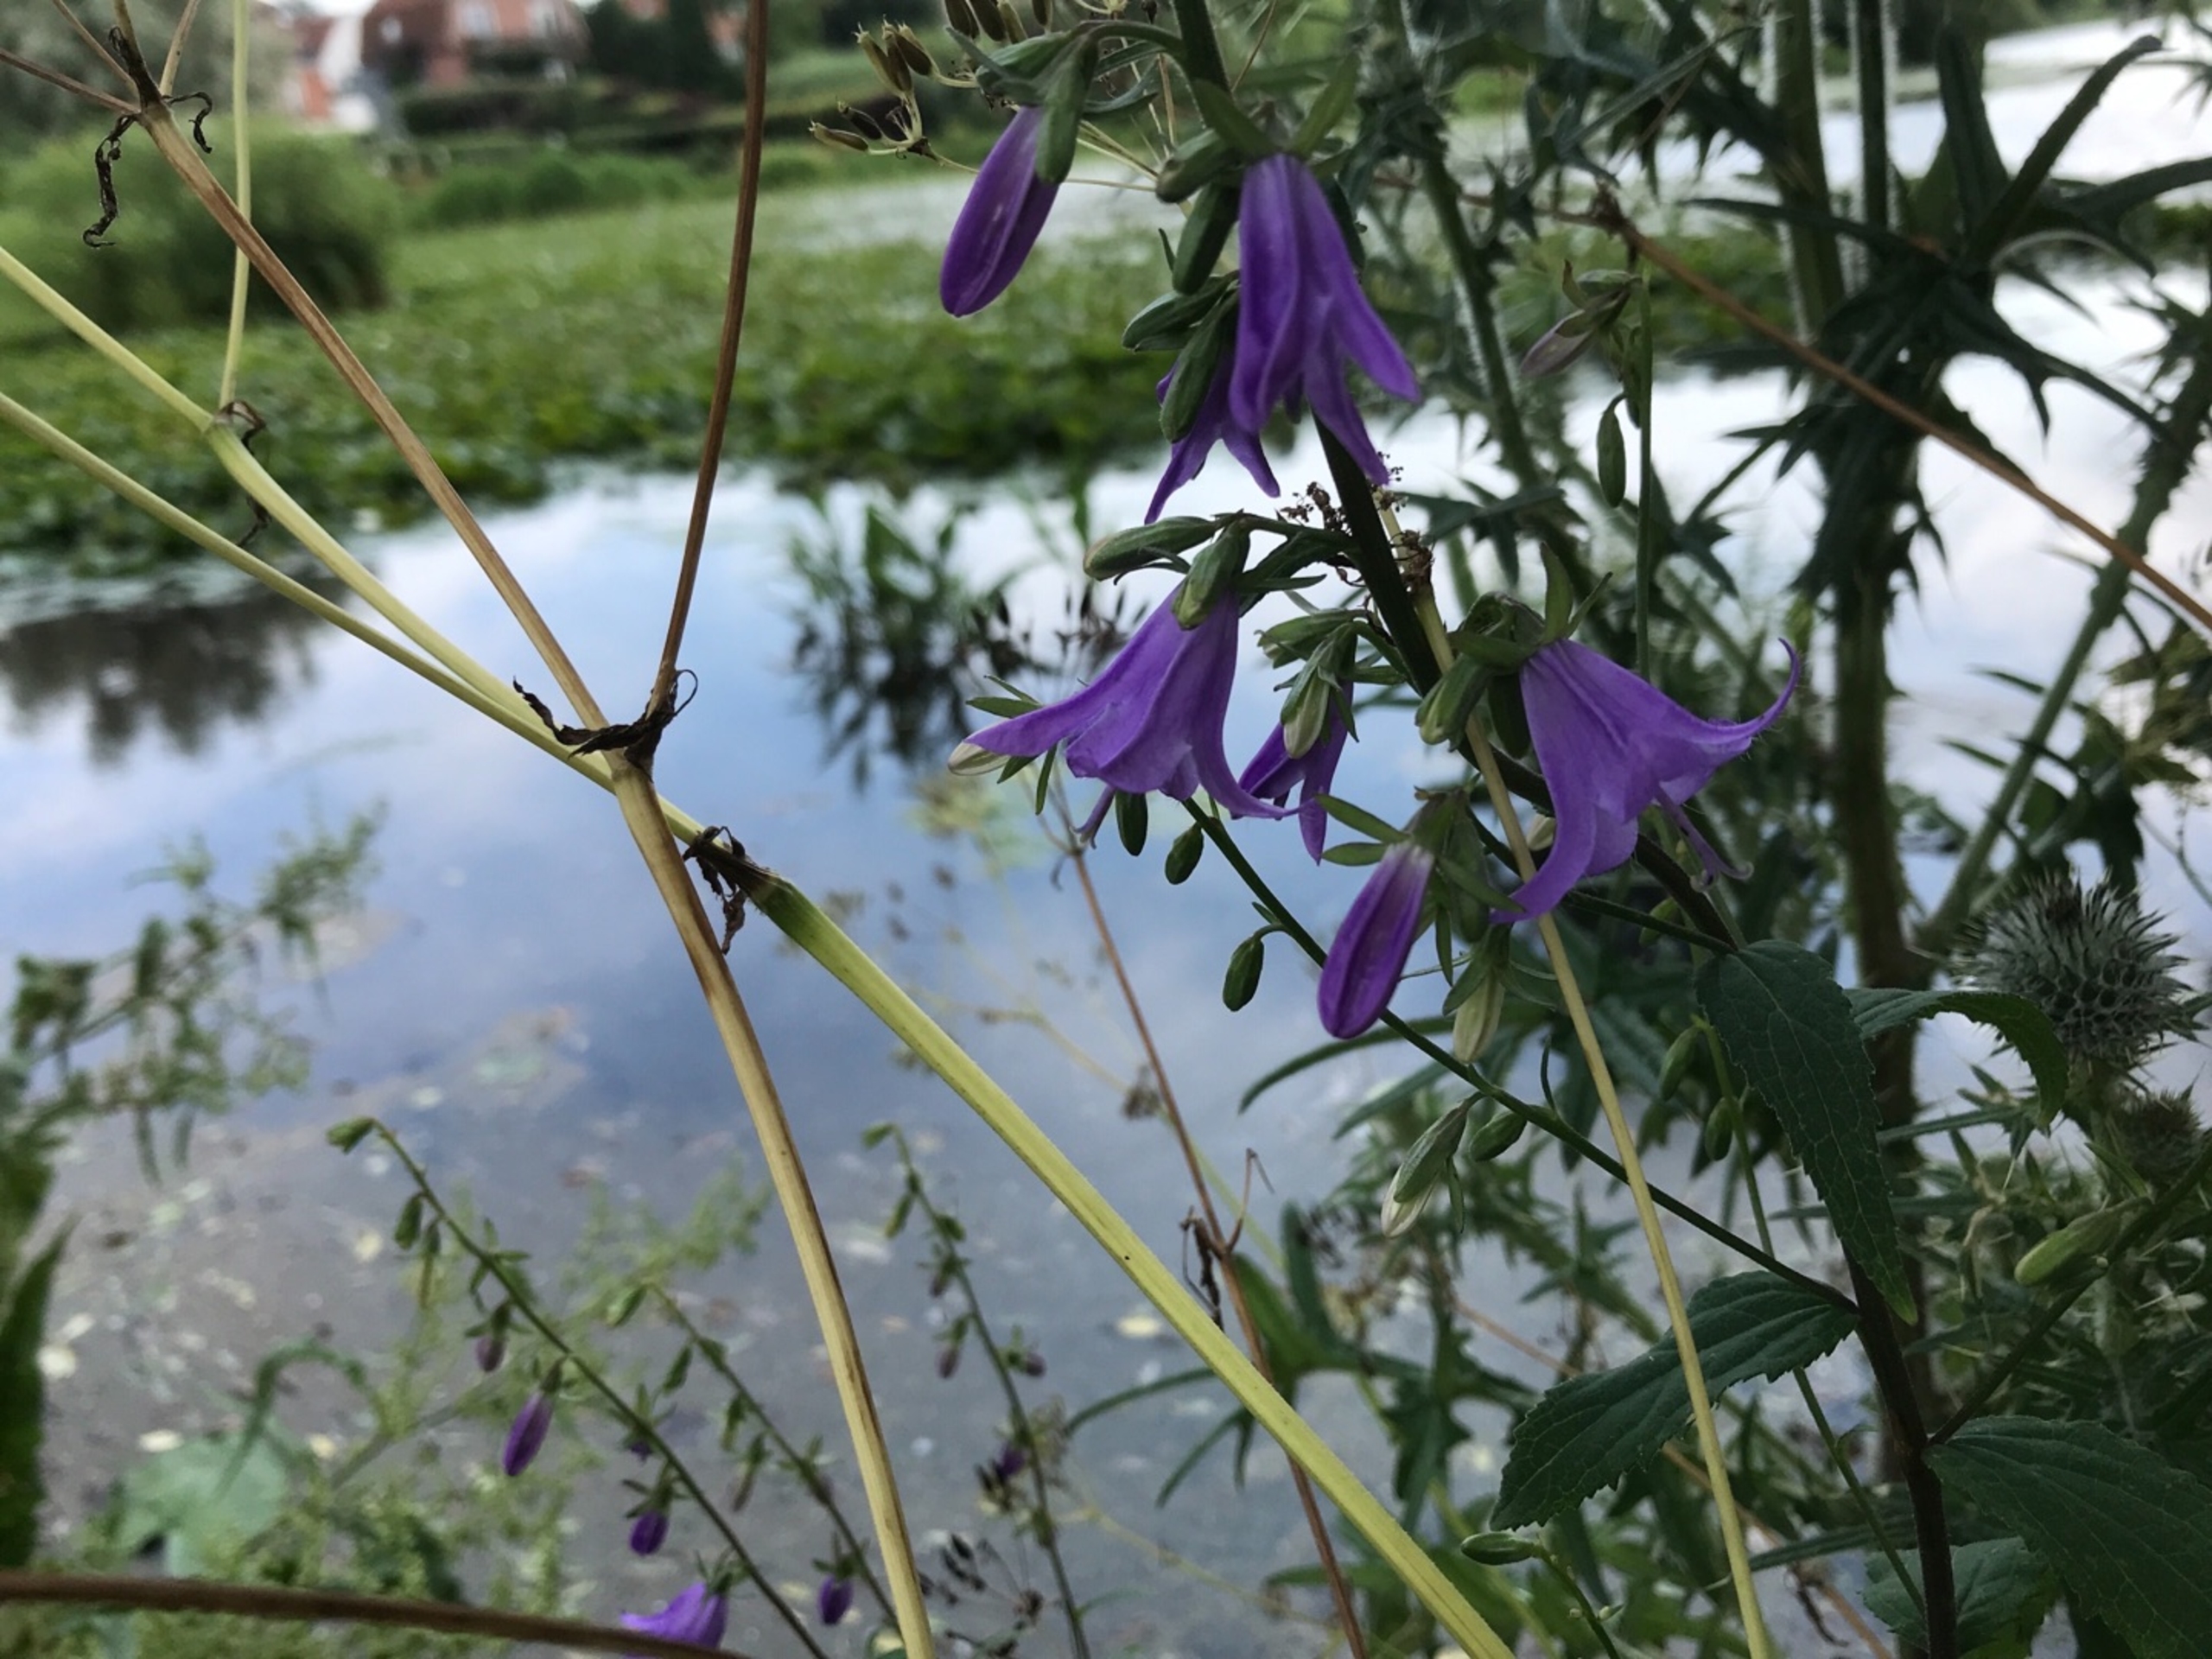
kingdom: Plantae
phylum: Tracheophyta
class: Magnoliopsida
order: Asterales
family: Campanulaceae
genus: Campanula
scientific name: Campanula rapunculoides
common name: Ensidig klokke
